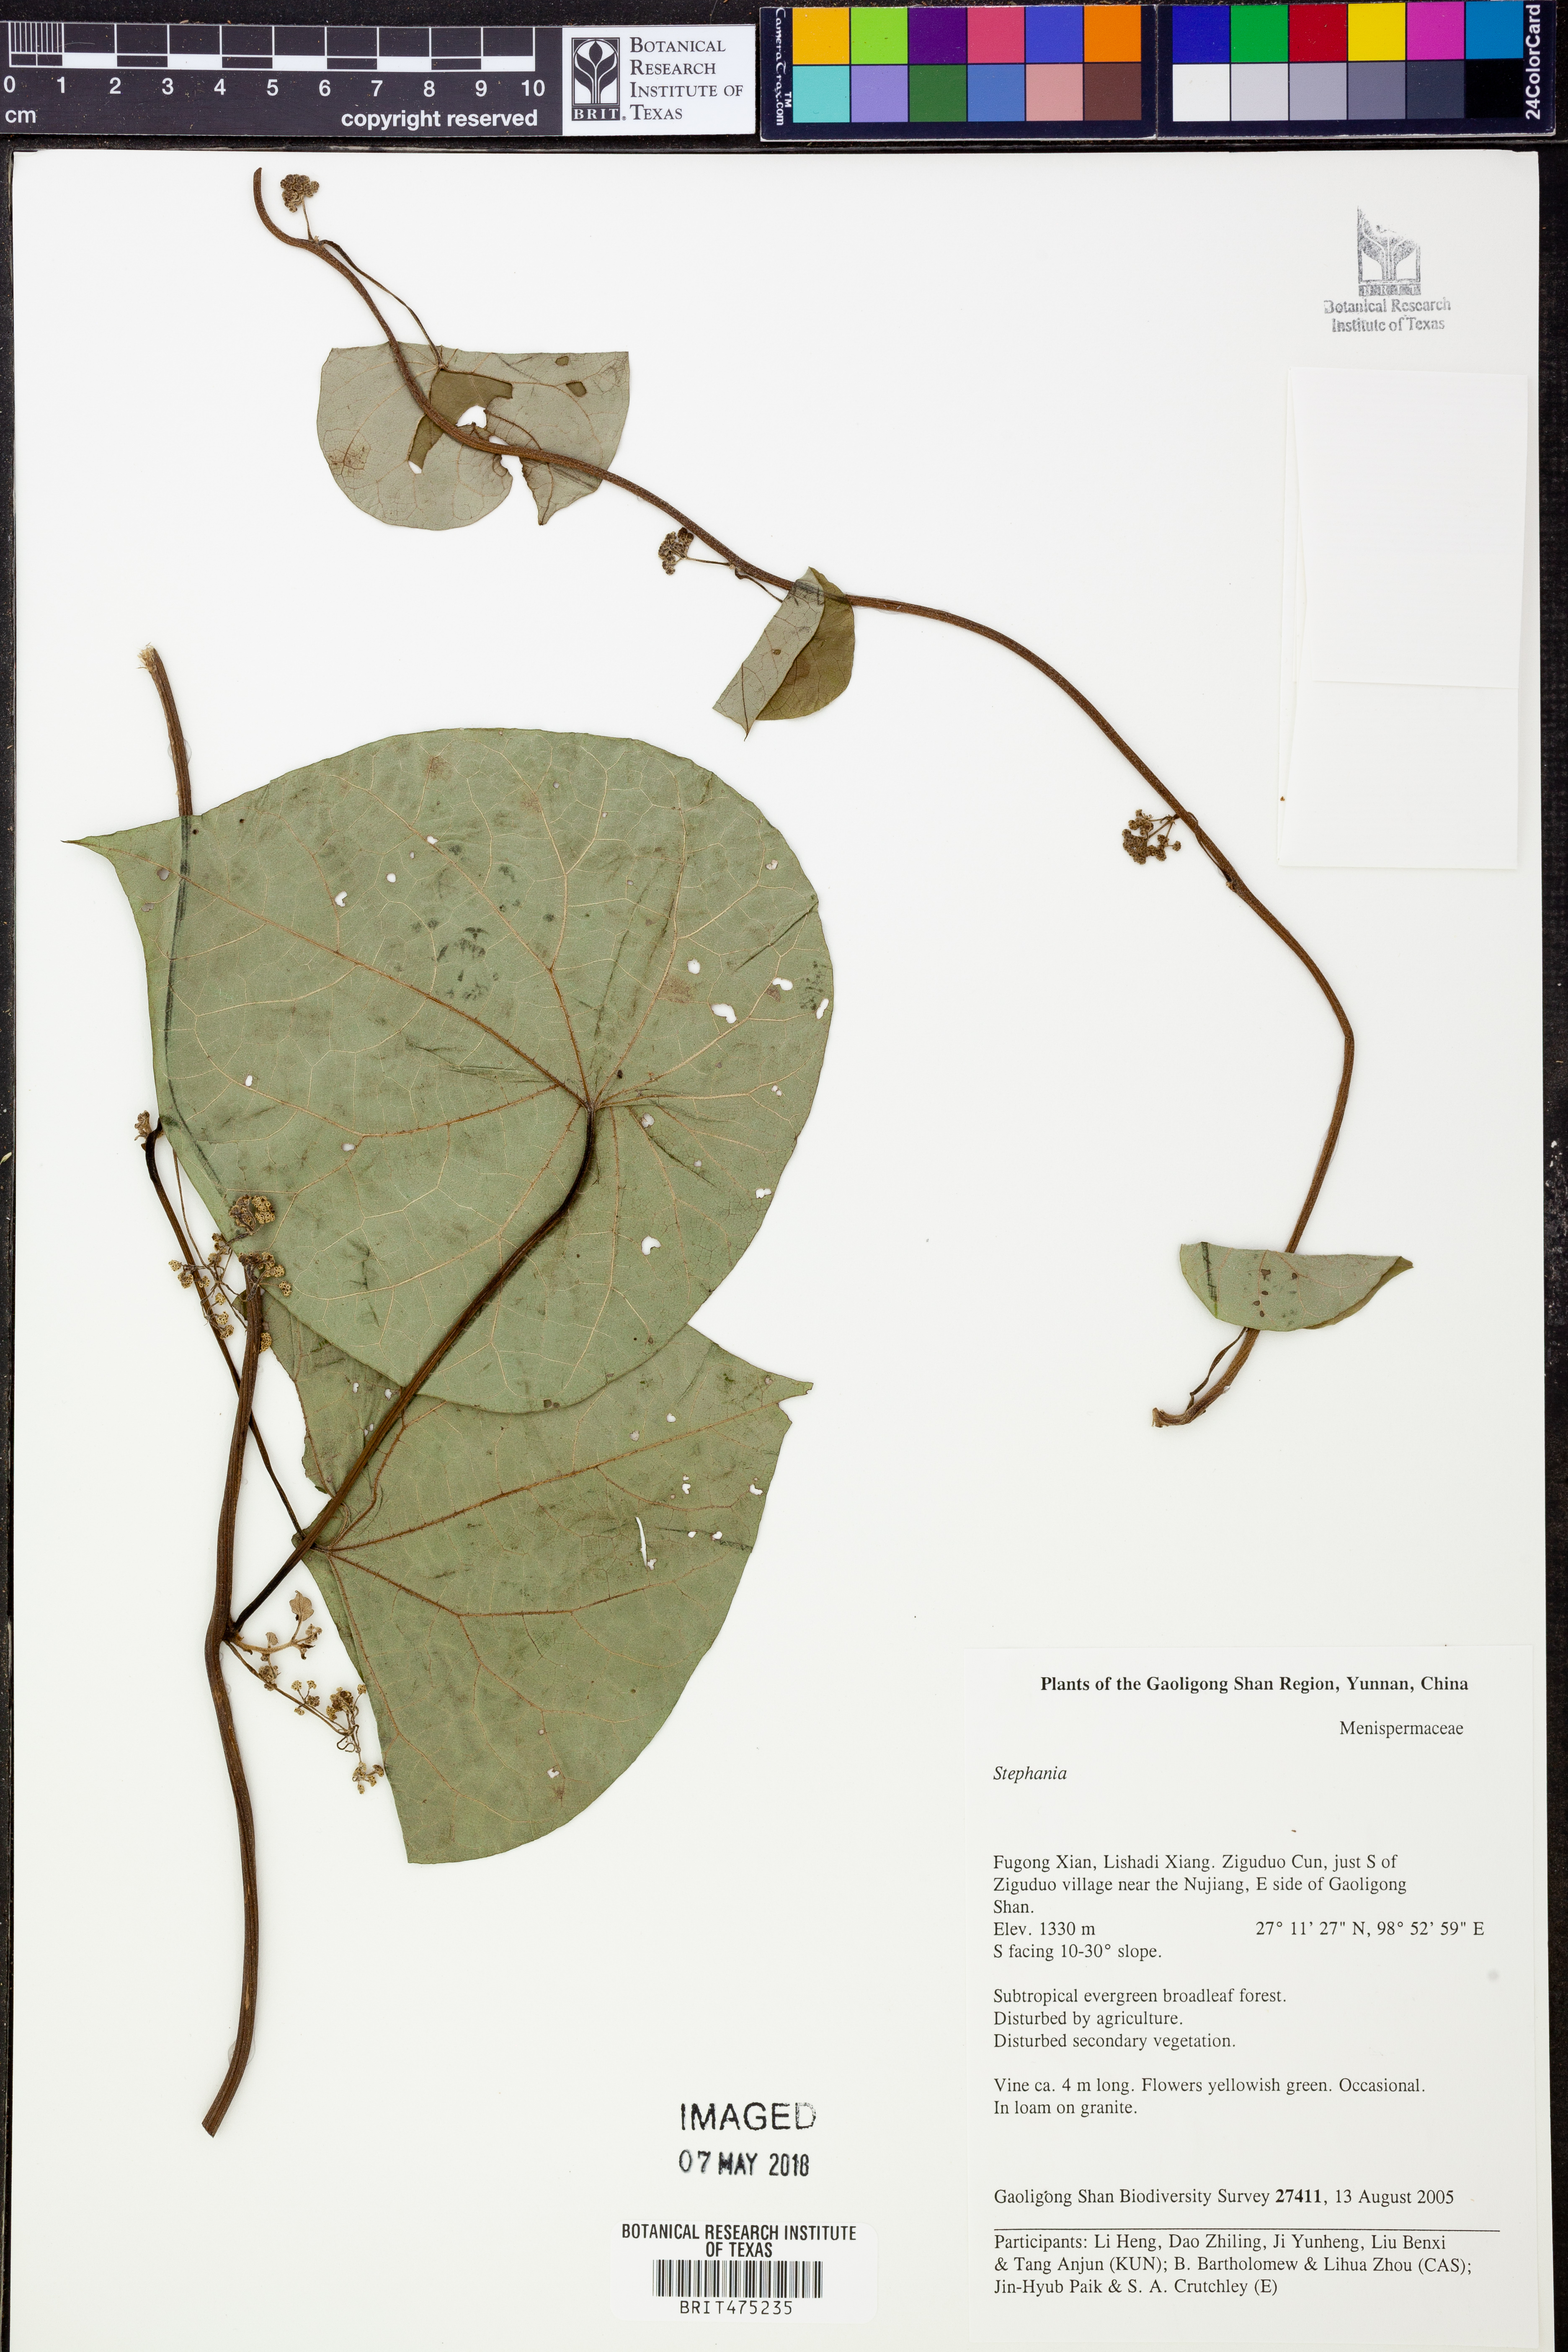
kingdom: Plantae
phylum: Tracheophyta
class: Magnoliopsida
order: Ranunculales
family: Menispermaceae
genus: Stephania
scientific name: Stephania
